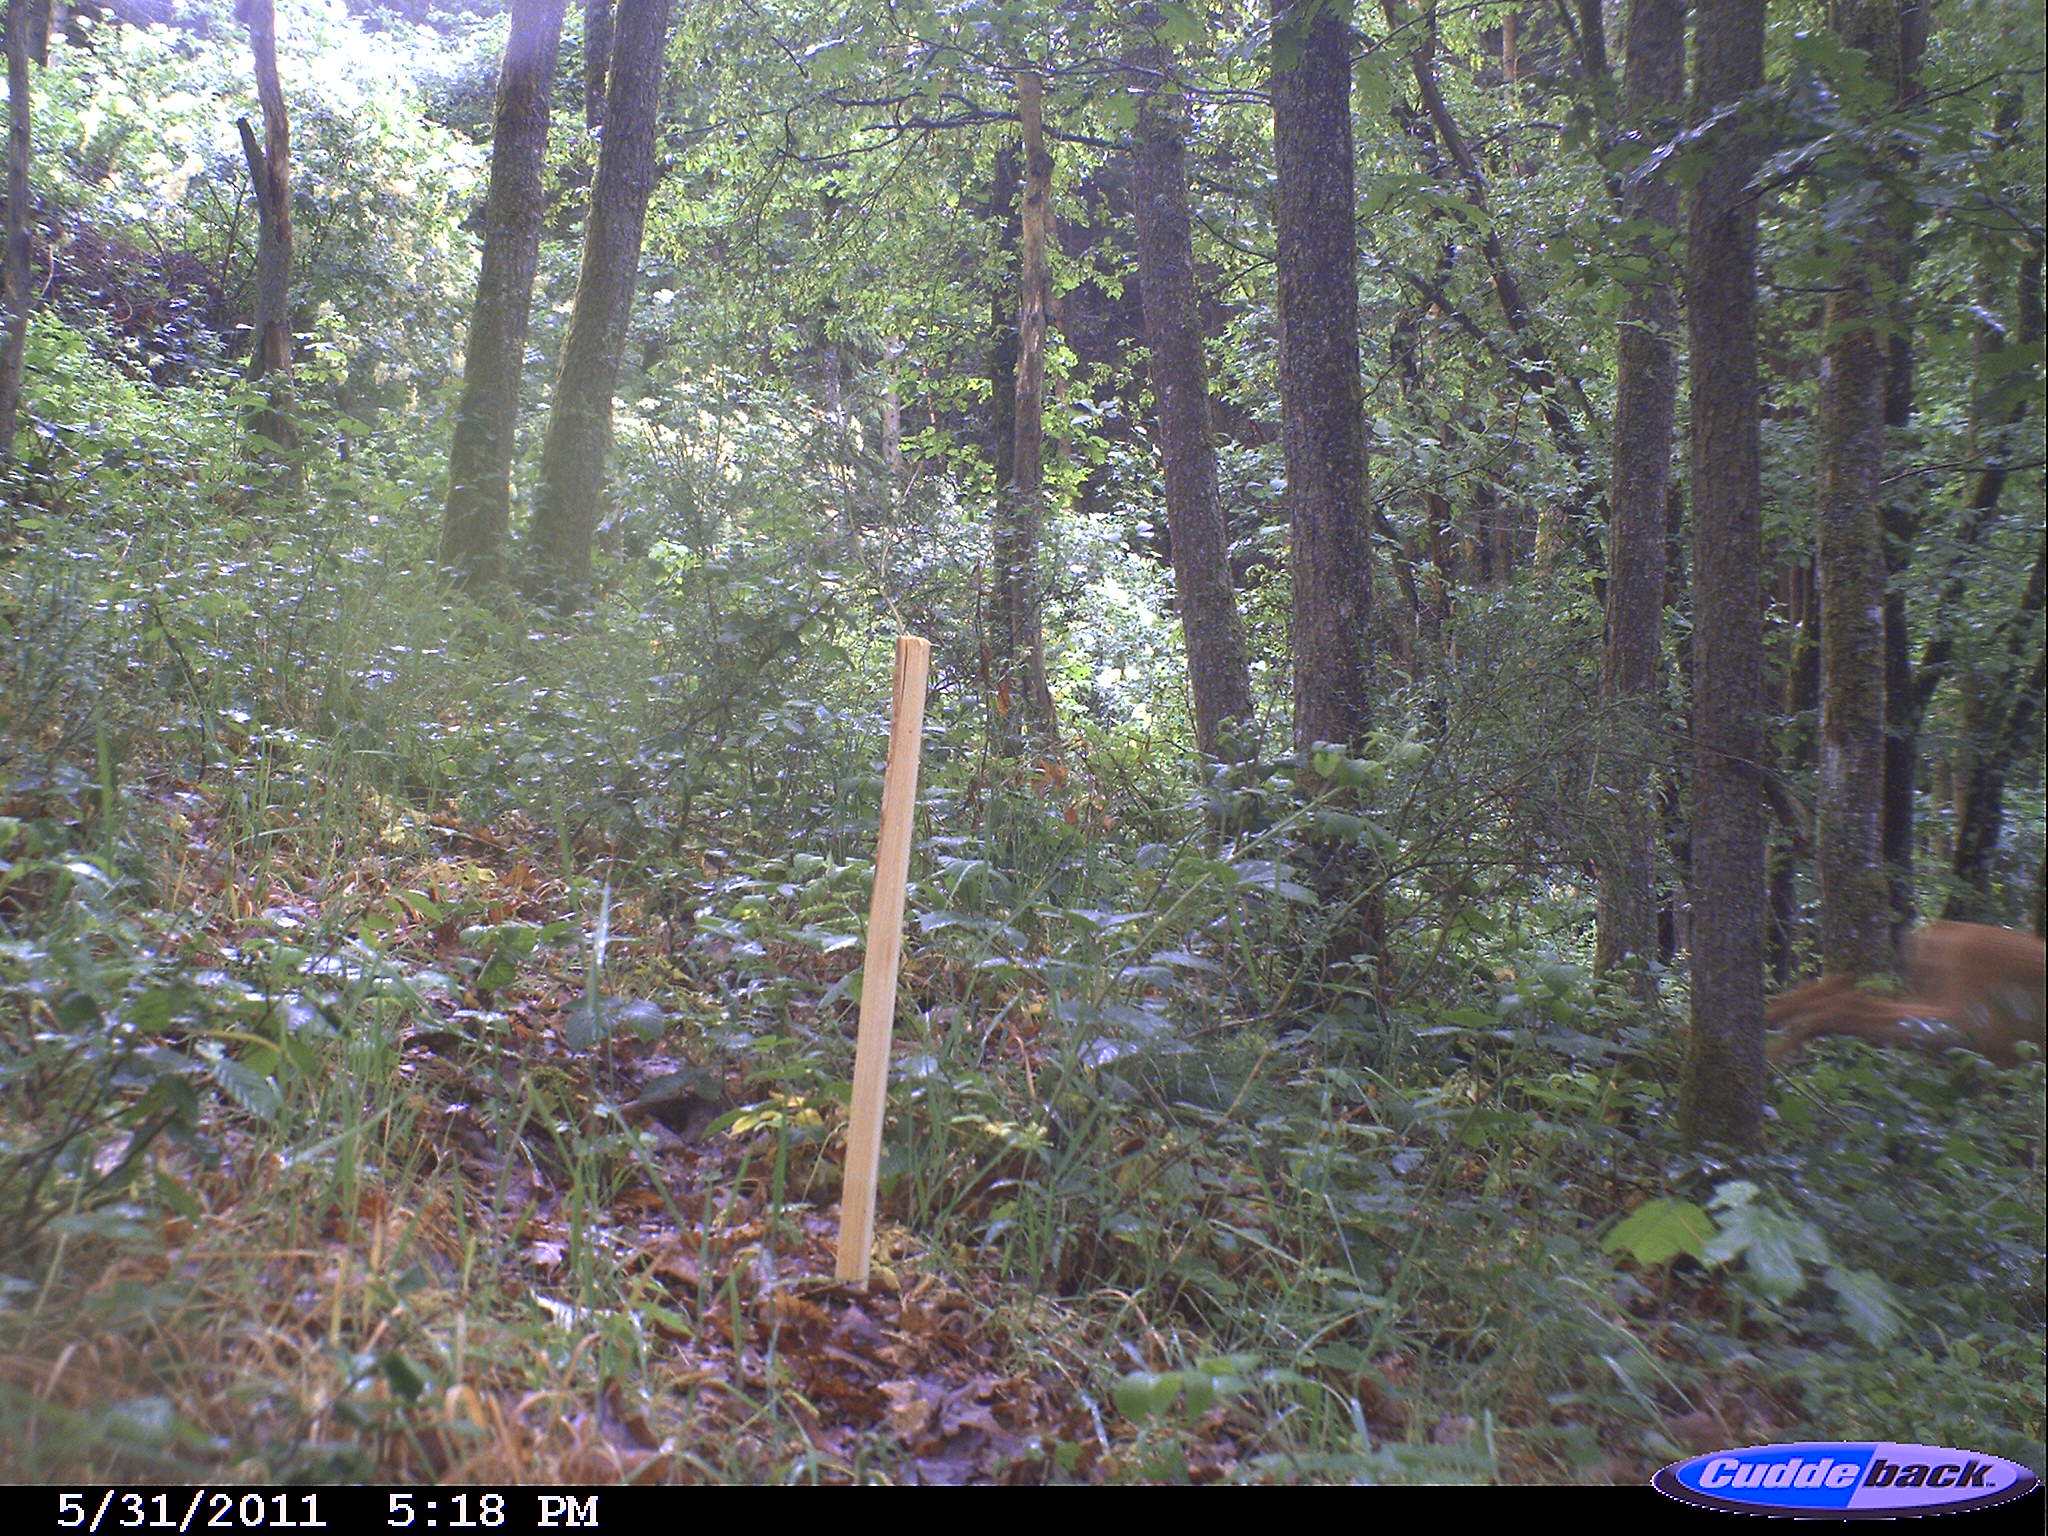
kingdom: Animalia
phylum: Chordata
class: Mammalia
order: Artiodactyla
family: Cervidae
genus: Capreolus
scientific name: Capreolus capreolus
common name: Western roe deer
